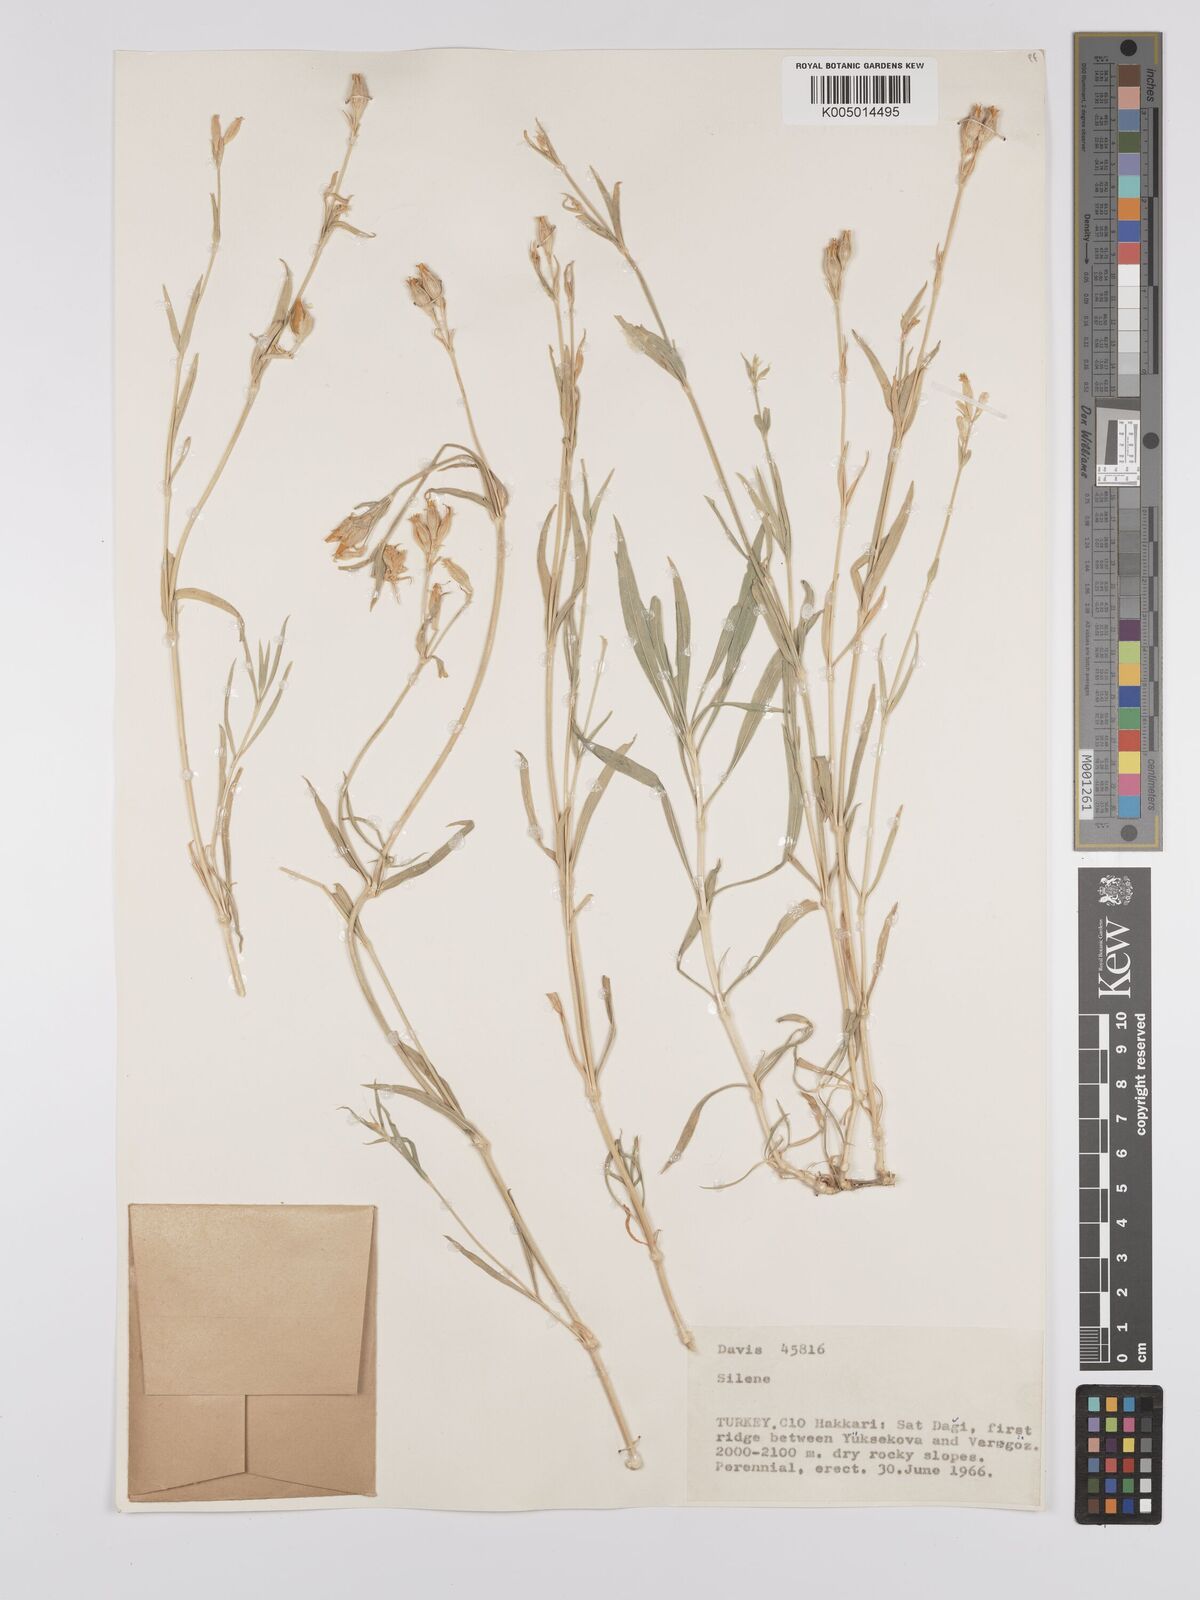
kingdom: Plantae
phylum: Tracheophyta
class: Magnoliopsida
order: Caryophyllales
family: Caryophyllaceae
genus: Silene
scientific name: Silene
